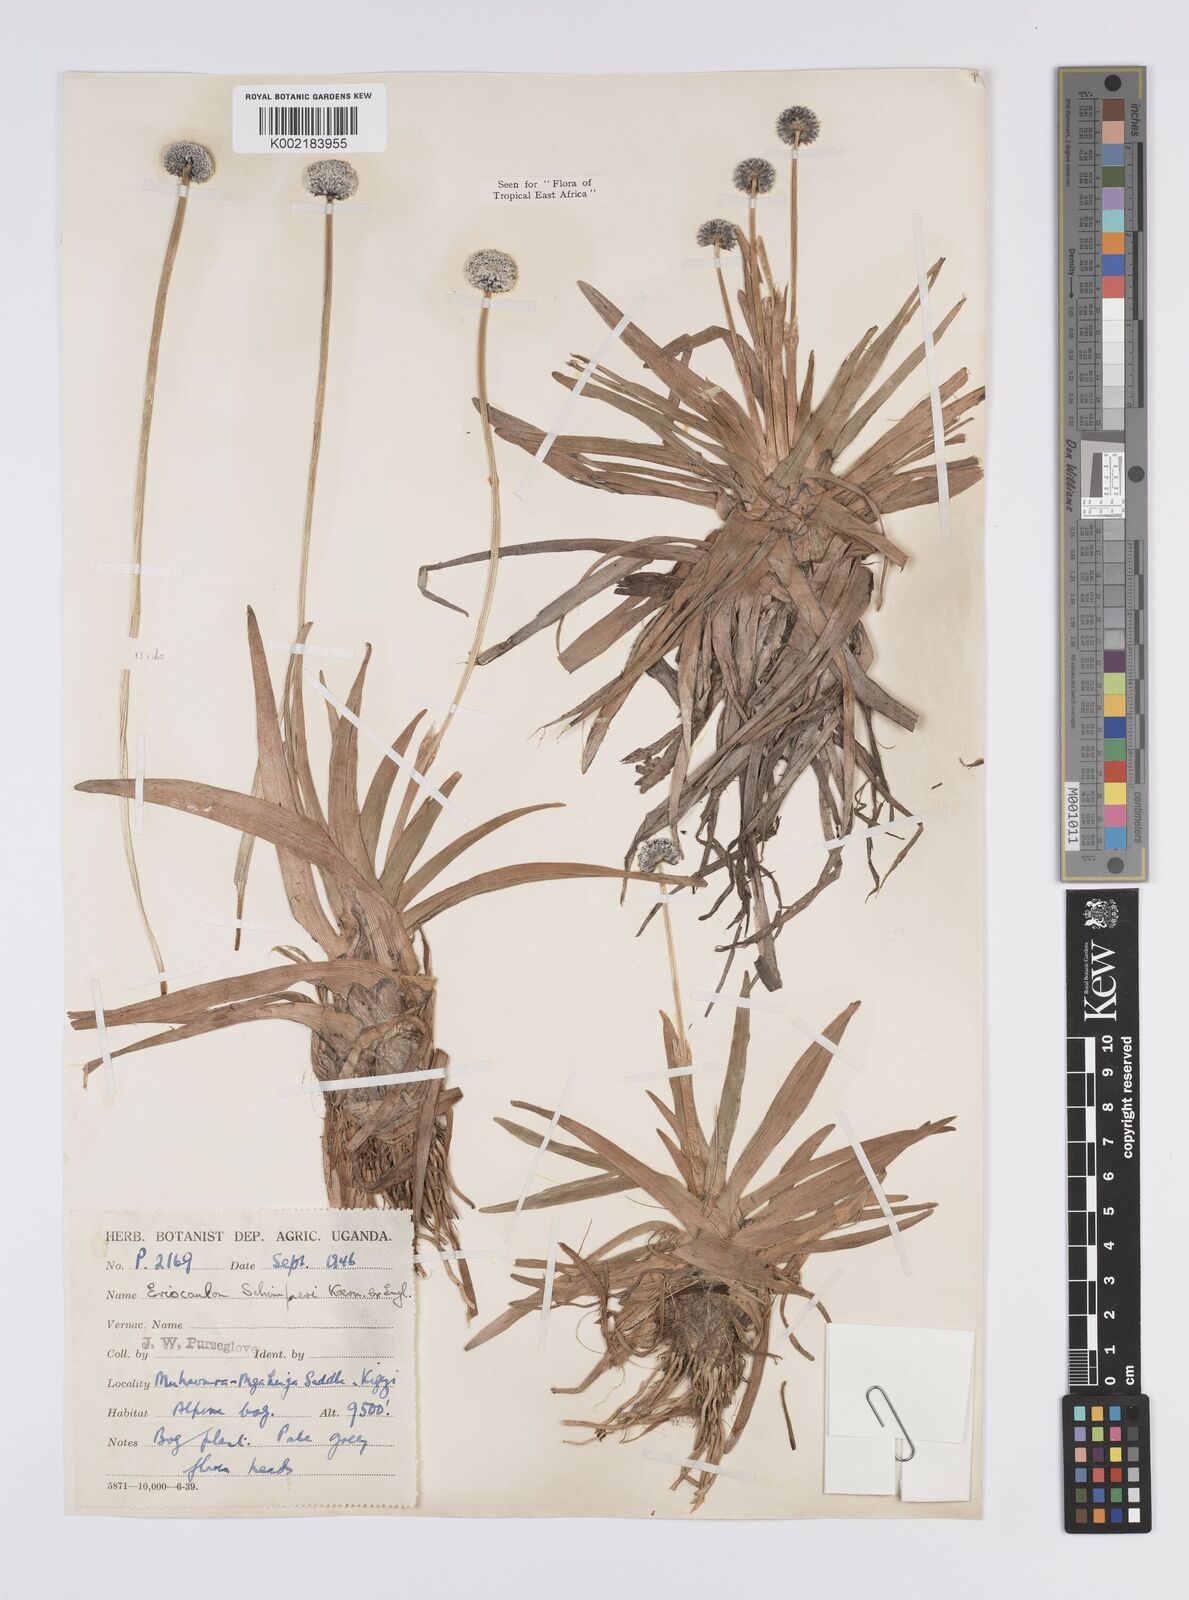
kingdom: Plantae
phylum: Tracheophyta
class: Liliopsida
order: Poales
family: Eriocaulaceae
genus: Eriocaulon
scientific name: Eriocaulon schimperi
